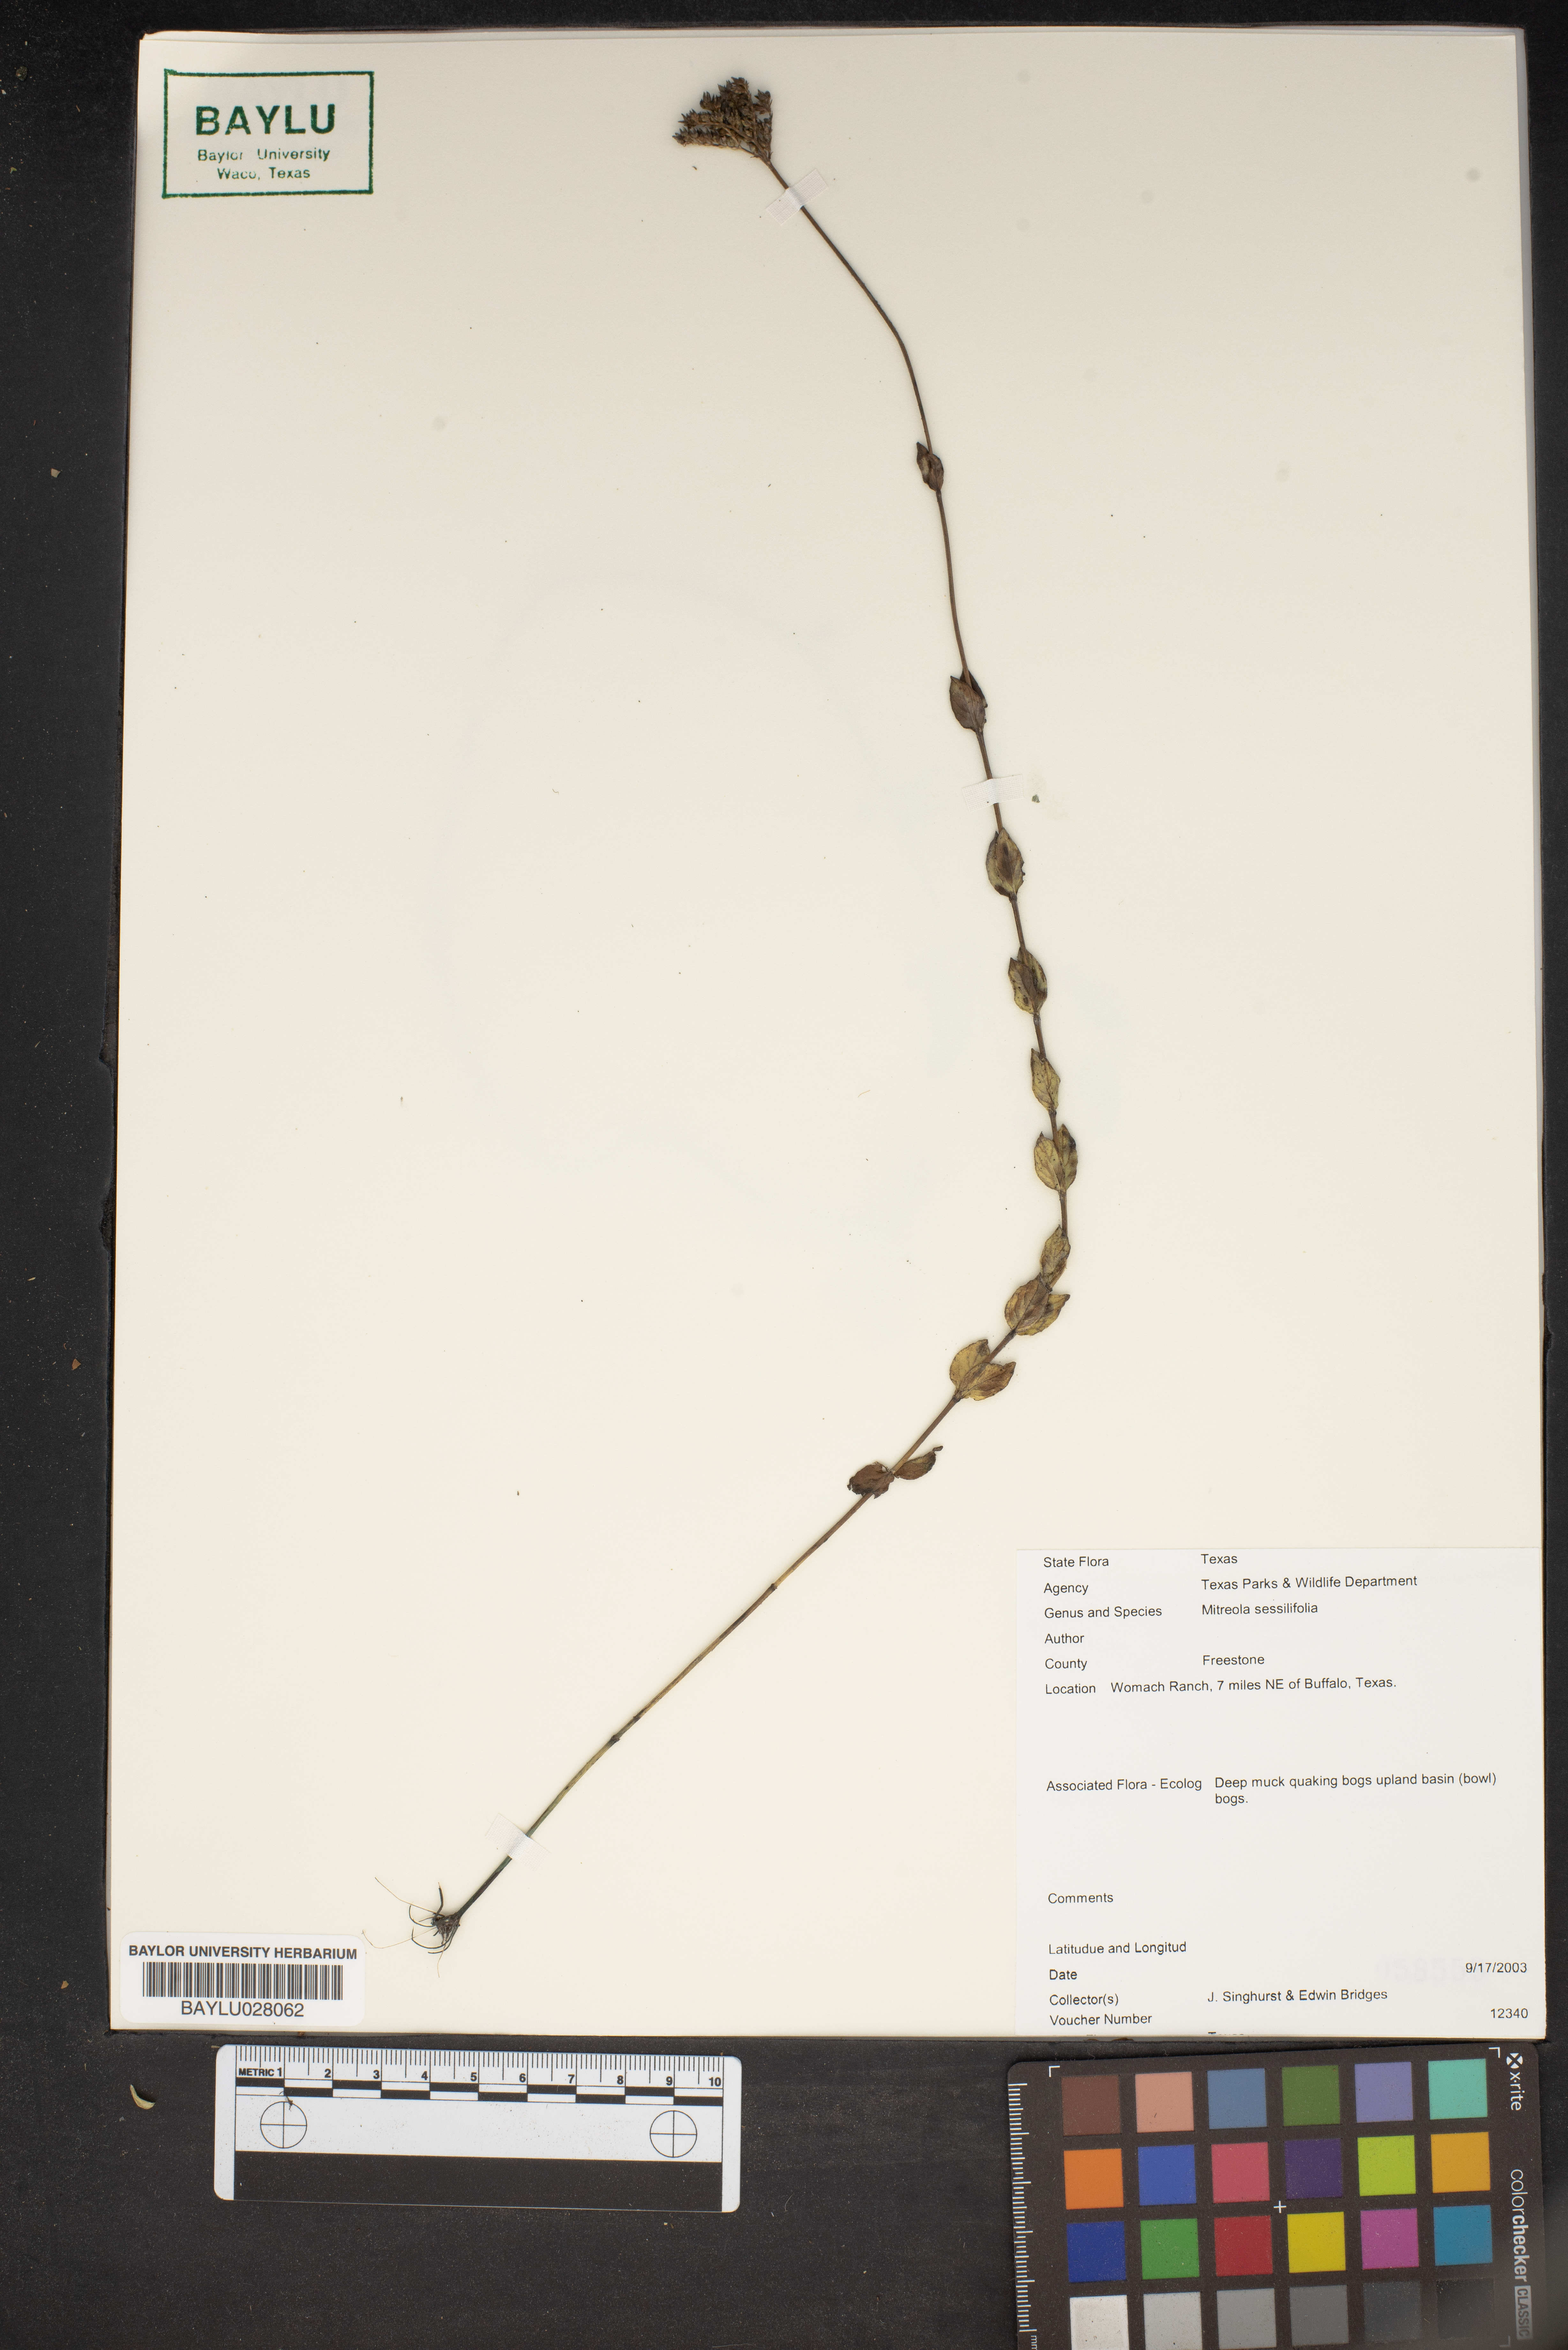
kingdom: Plantae
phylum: Tracheophyta
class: Magnoliopsida
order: Gentianales
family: Loganiaceae
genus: Mitreola
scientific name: Mitreola sessilifolia
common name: Swamp hornpod
